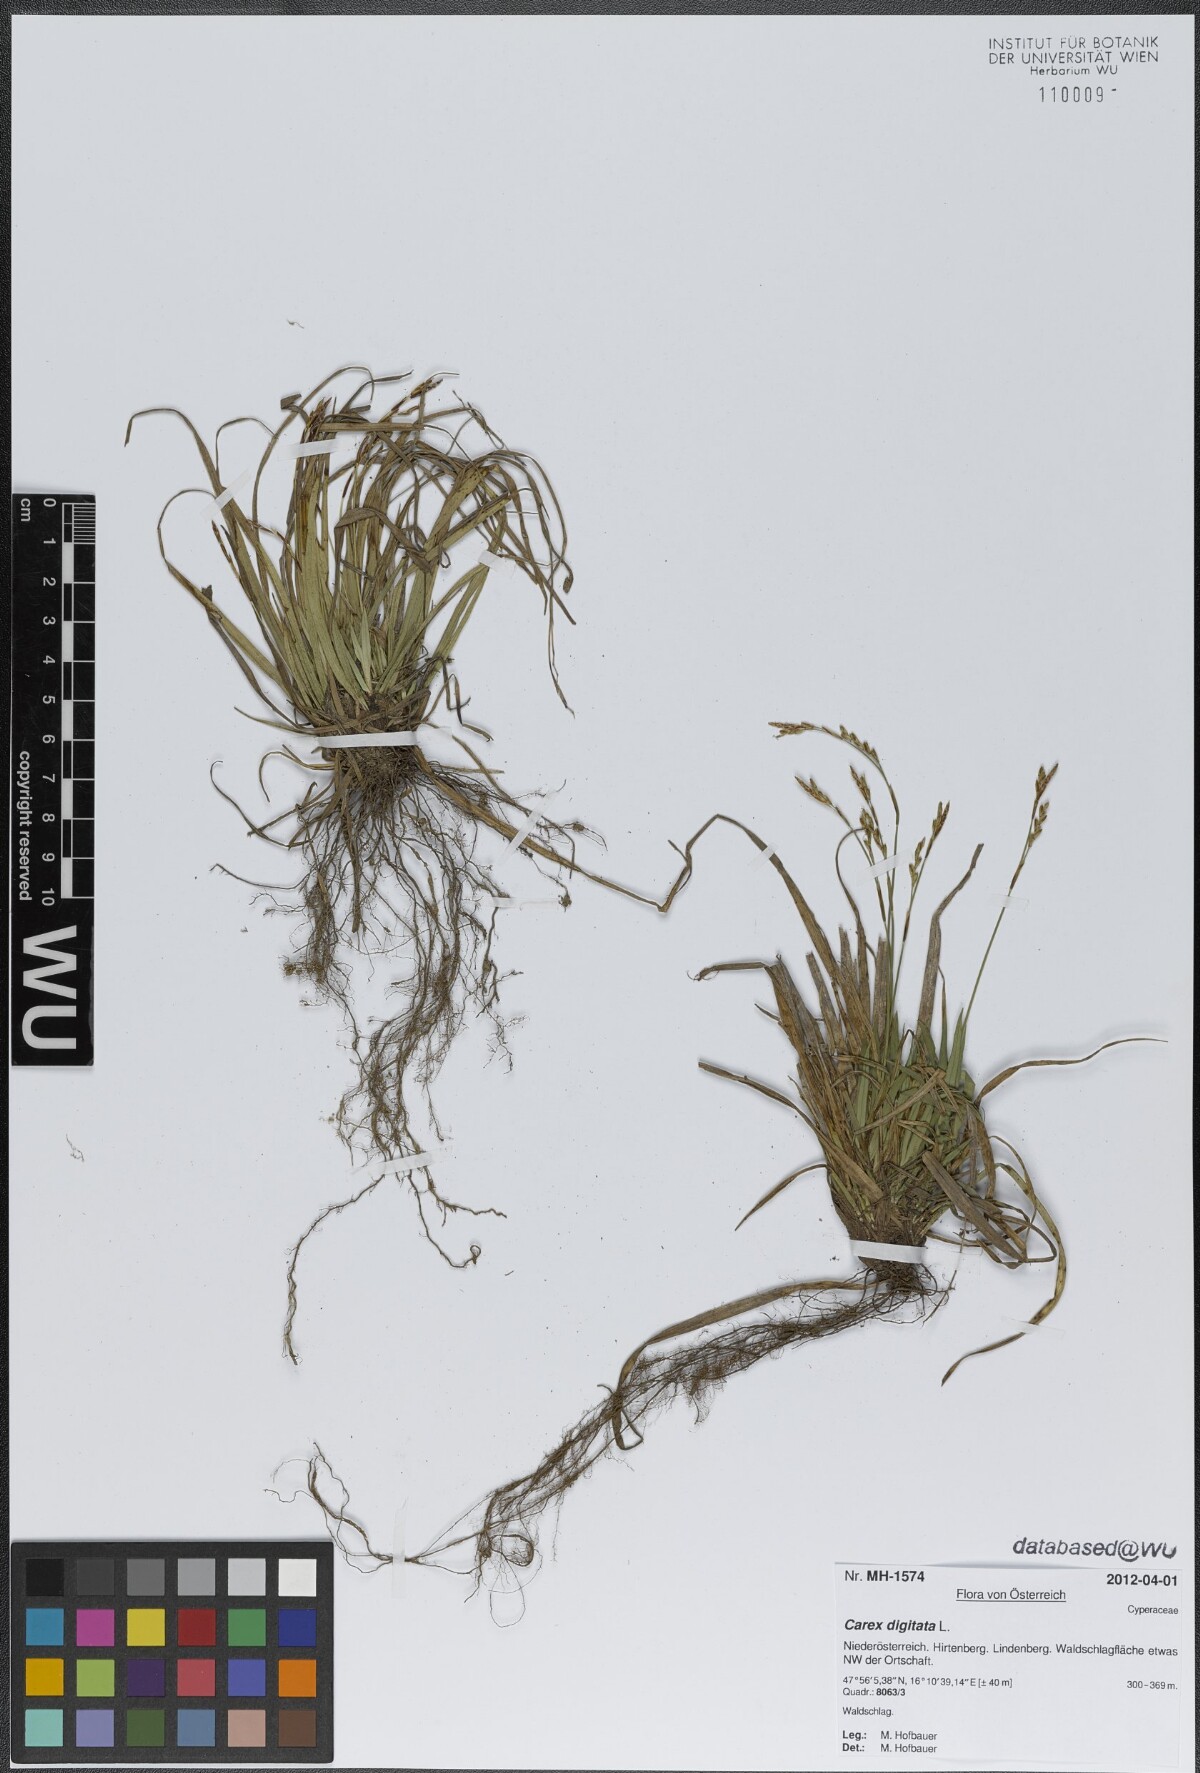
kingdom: Plantae
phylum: Tracheophyta
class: Liliopsida
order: Poales
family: Cyperaceae
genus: Carex
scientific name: Carex digitata
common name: Fingered sedge
